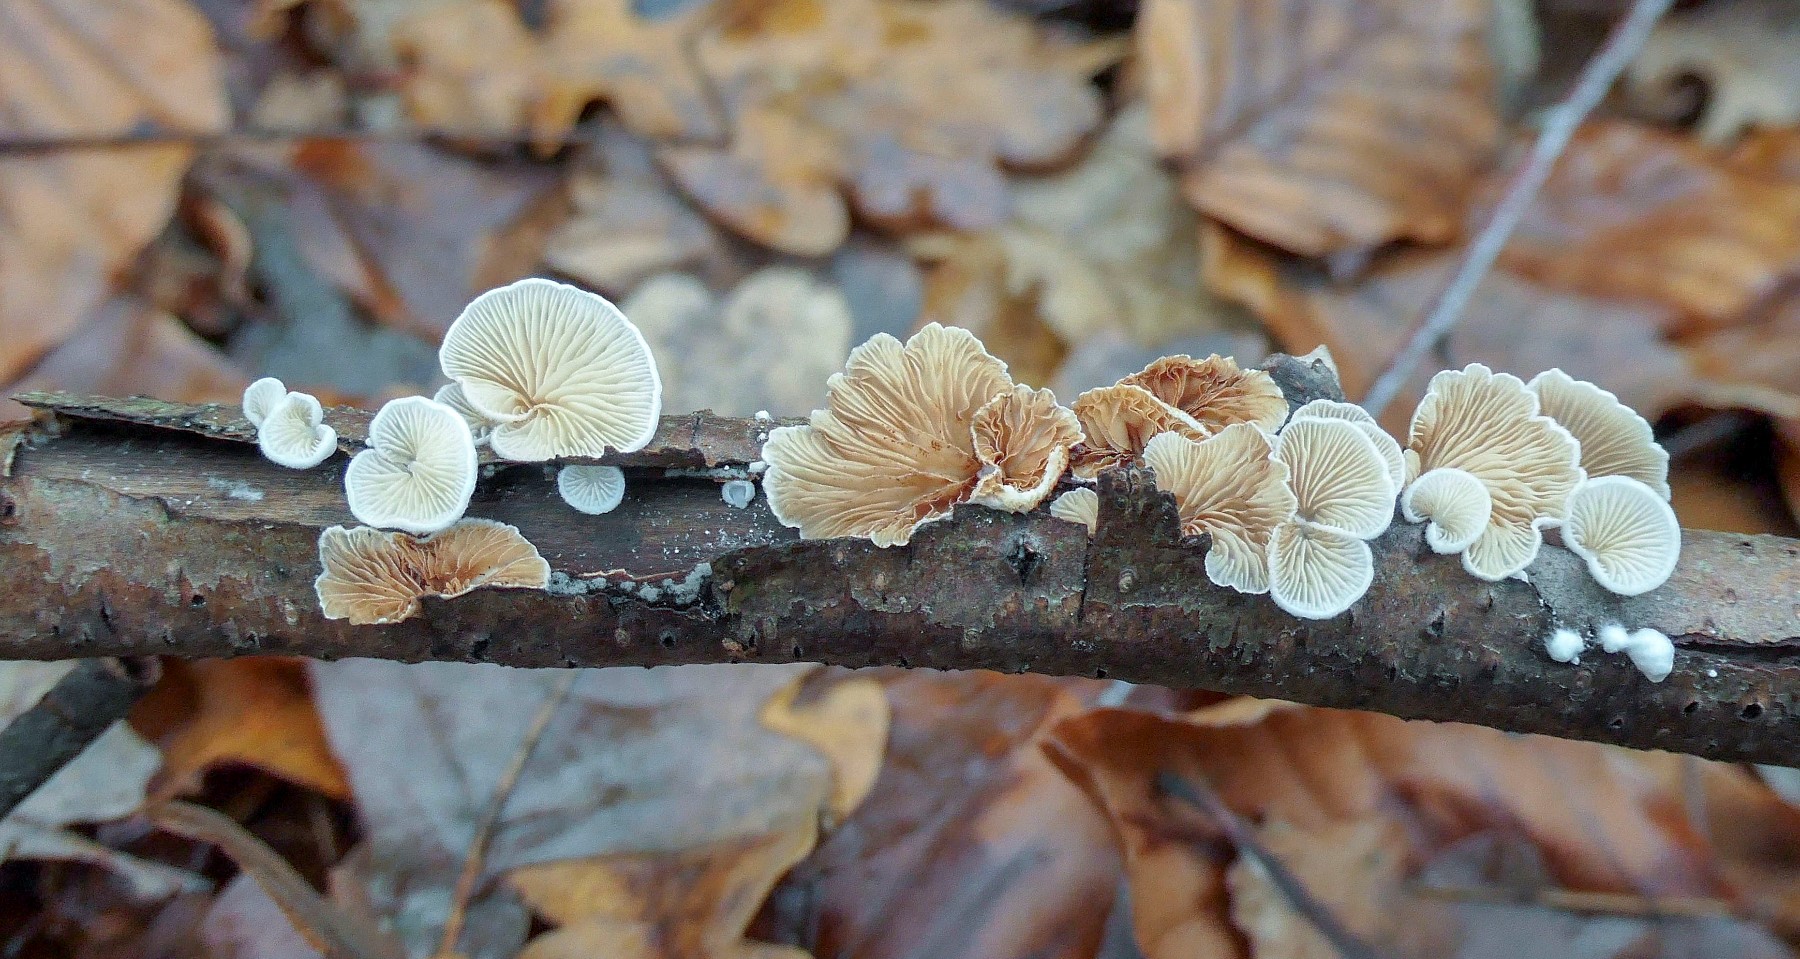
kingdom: Fungi
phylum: Basidiomycota
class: Agaricomycetes
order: Agaricales
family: Crepidotaceae
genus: Crepidotus
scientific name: Crepidotus variabilis
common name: forskelligformet muslingesvamp
